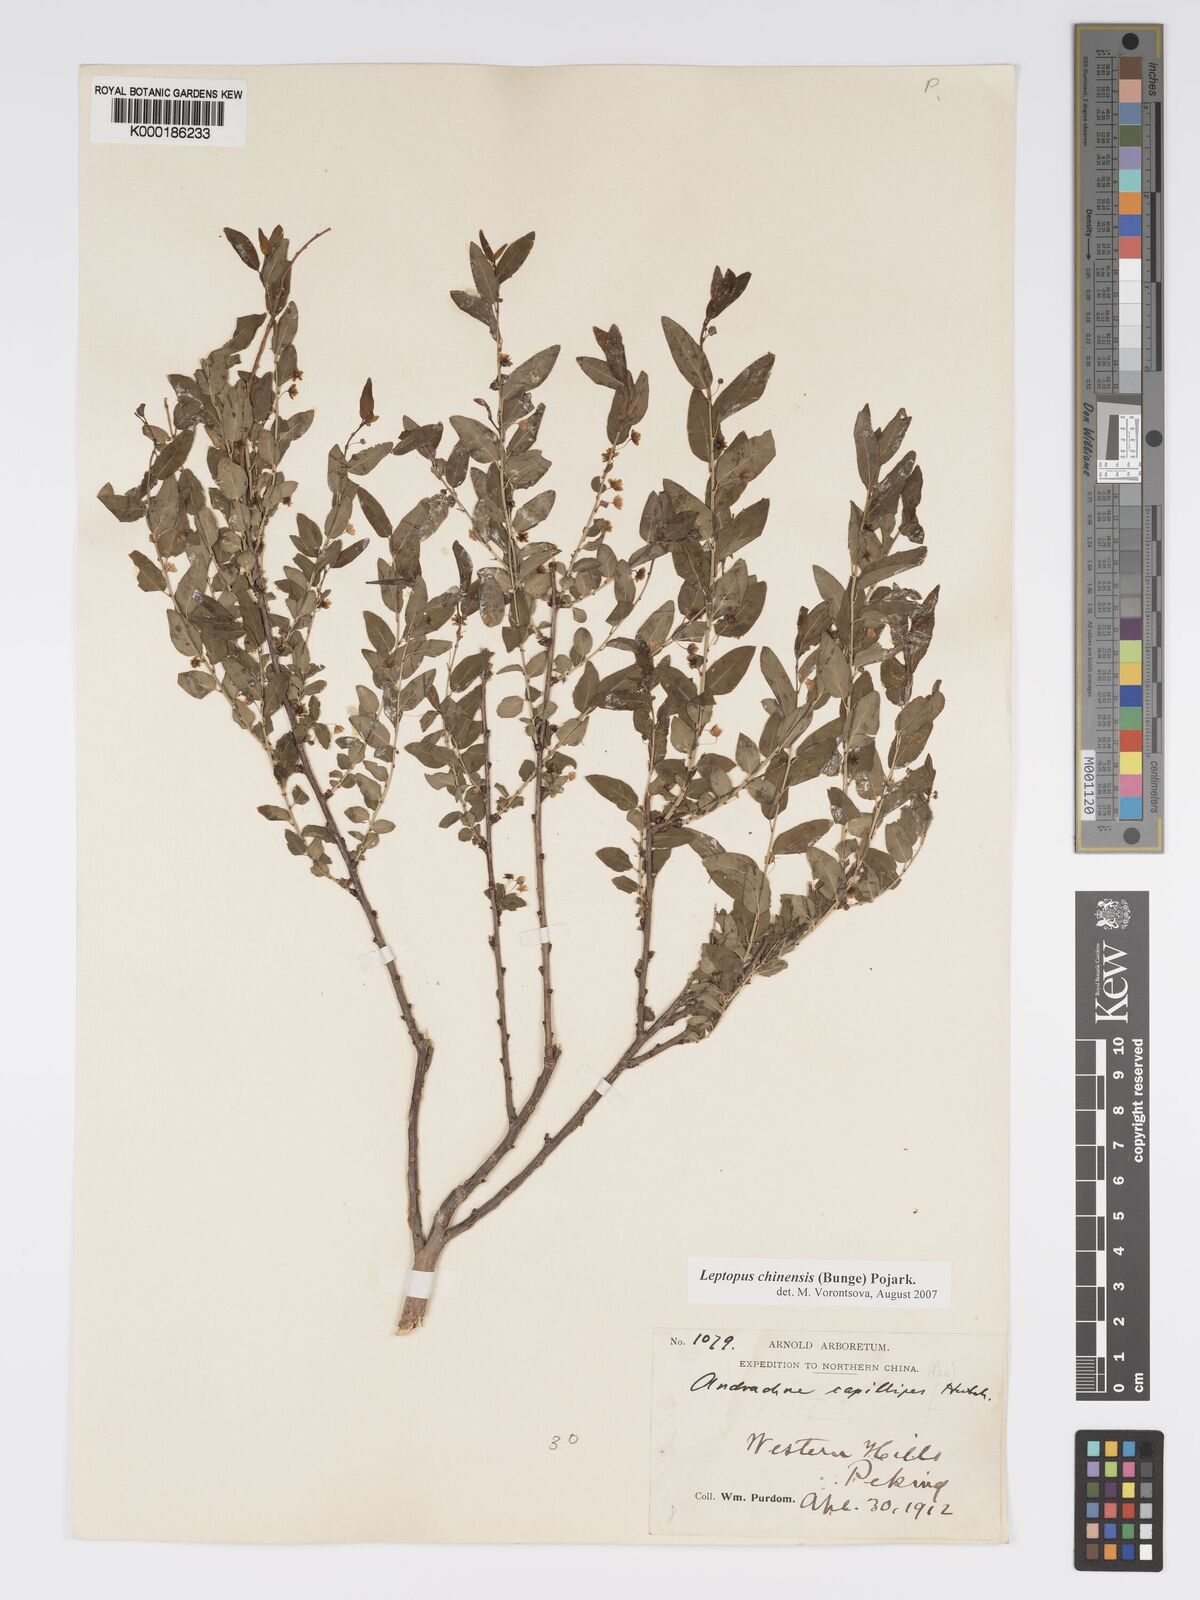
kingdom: Plantae
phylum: Tracheophyta
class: Magnoliopsida
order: Malpighiales
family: Phyllanthaceae
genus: Leptopus
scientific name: Leptopus chinensis
